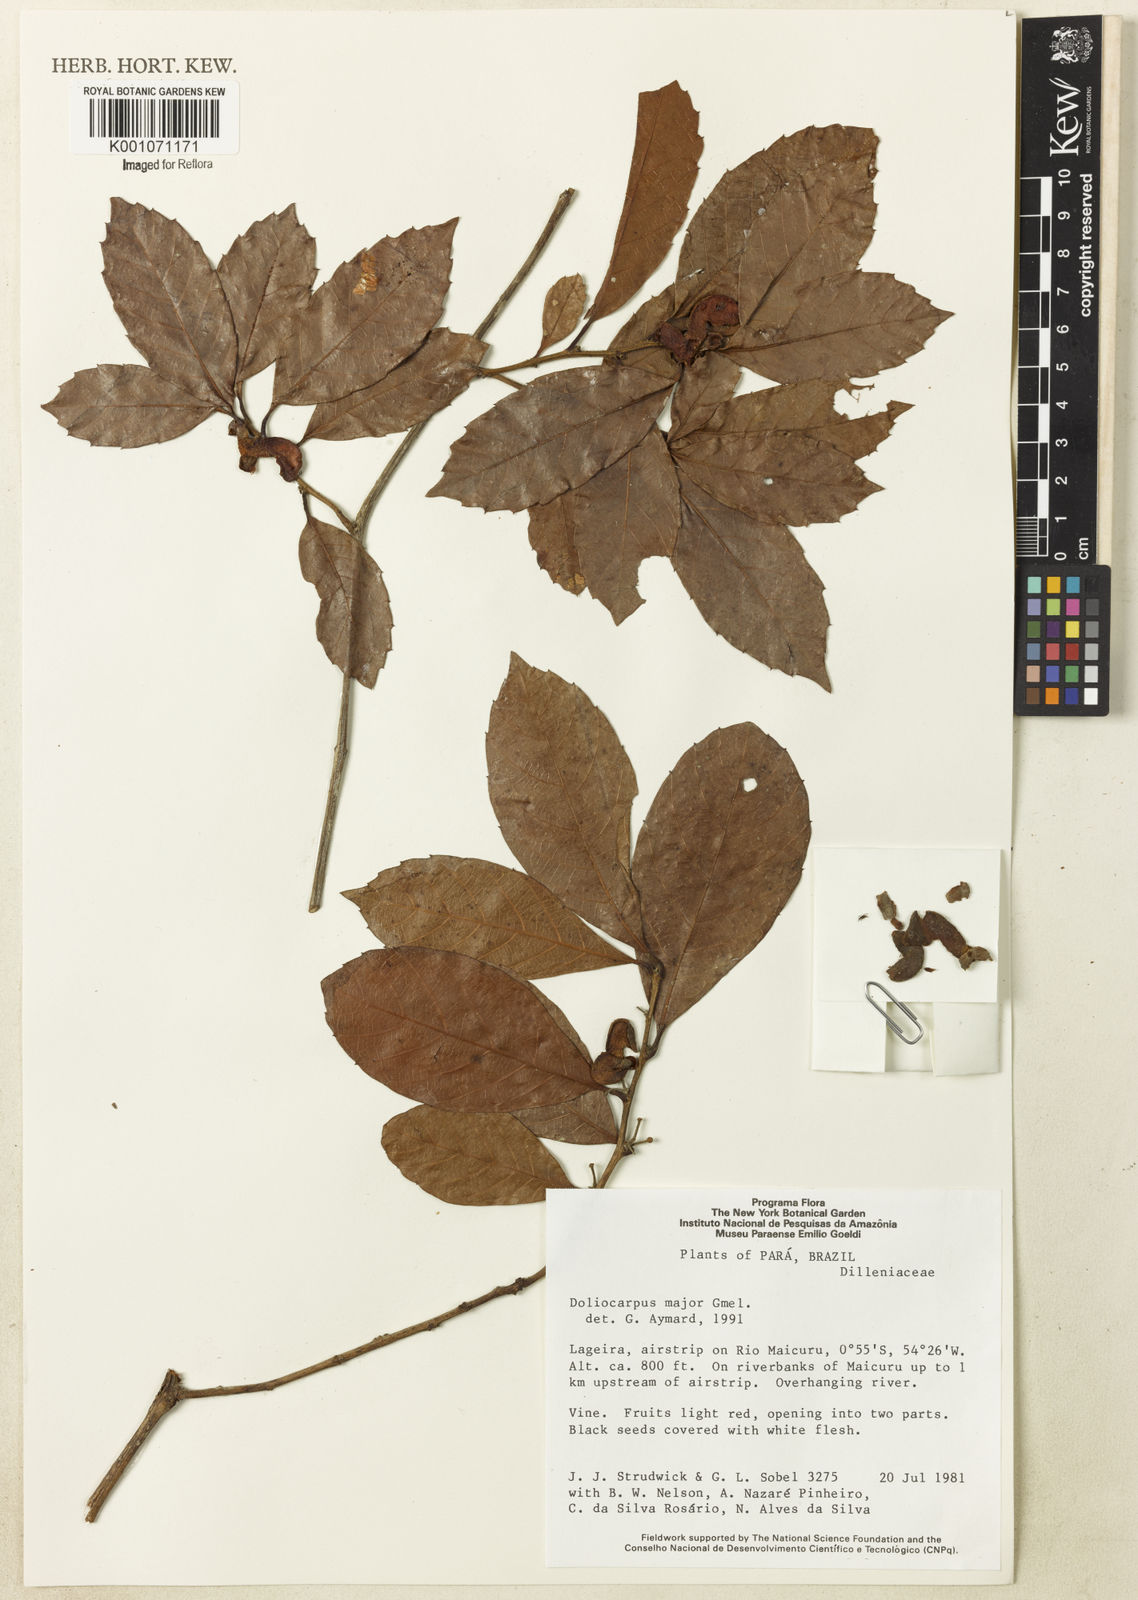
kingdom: Plantae
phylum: Tracheophyta
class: Magnoliopsida
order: Dilleniales
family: Dilleniaceae
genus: Doliocarpus
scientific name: Doliocarpus major
